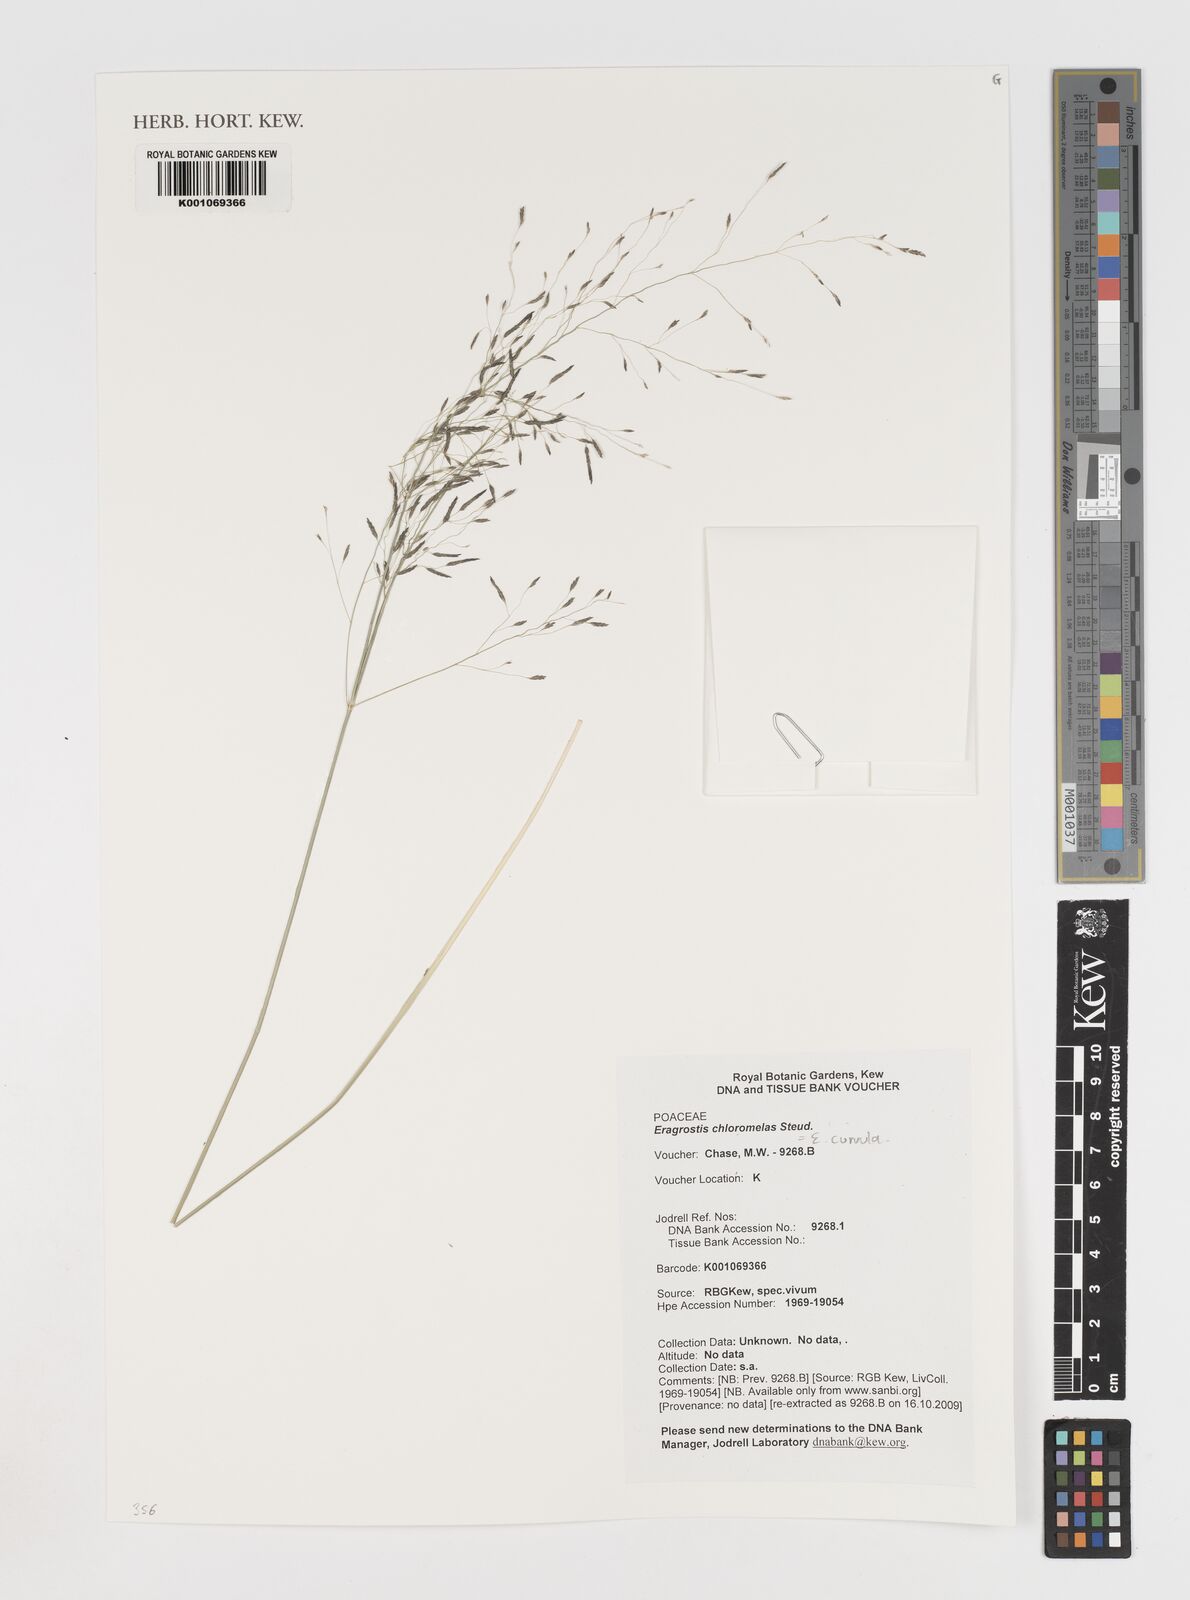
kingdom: Plantae
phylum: Tracheophyta
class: Liliopsida
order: Poales
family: Poaceae
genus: Eragrostis
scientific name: Eragrostis curvula
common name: African love-grass
